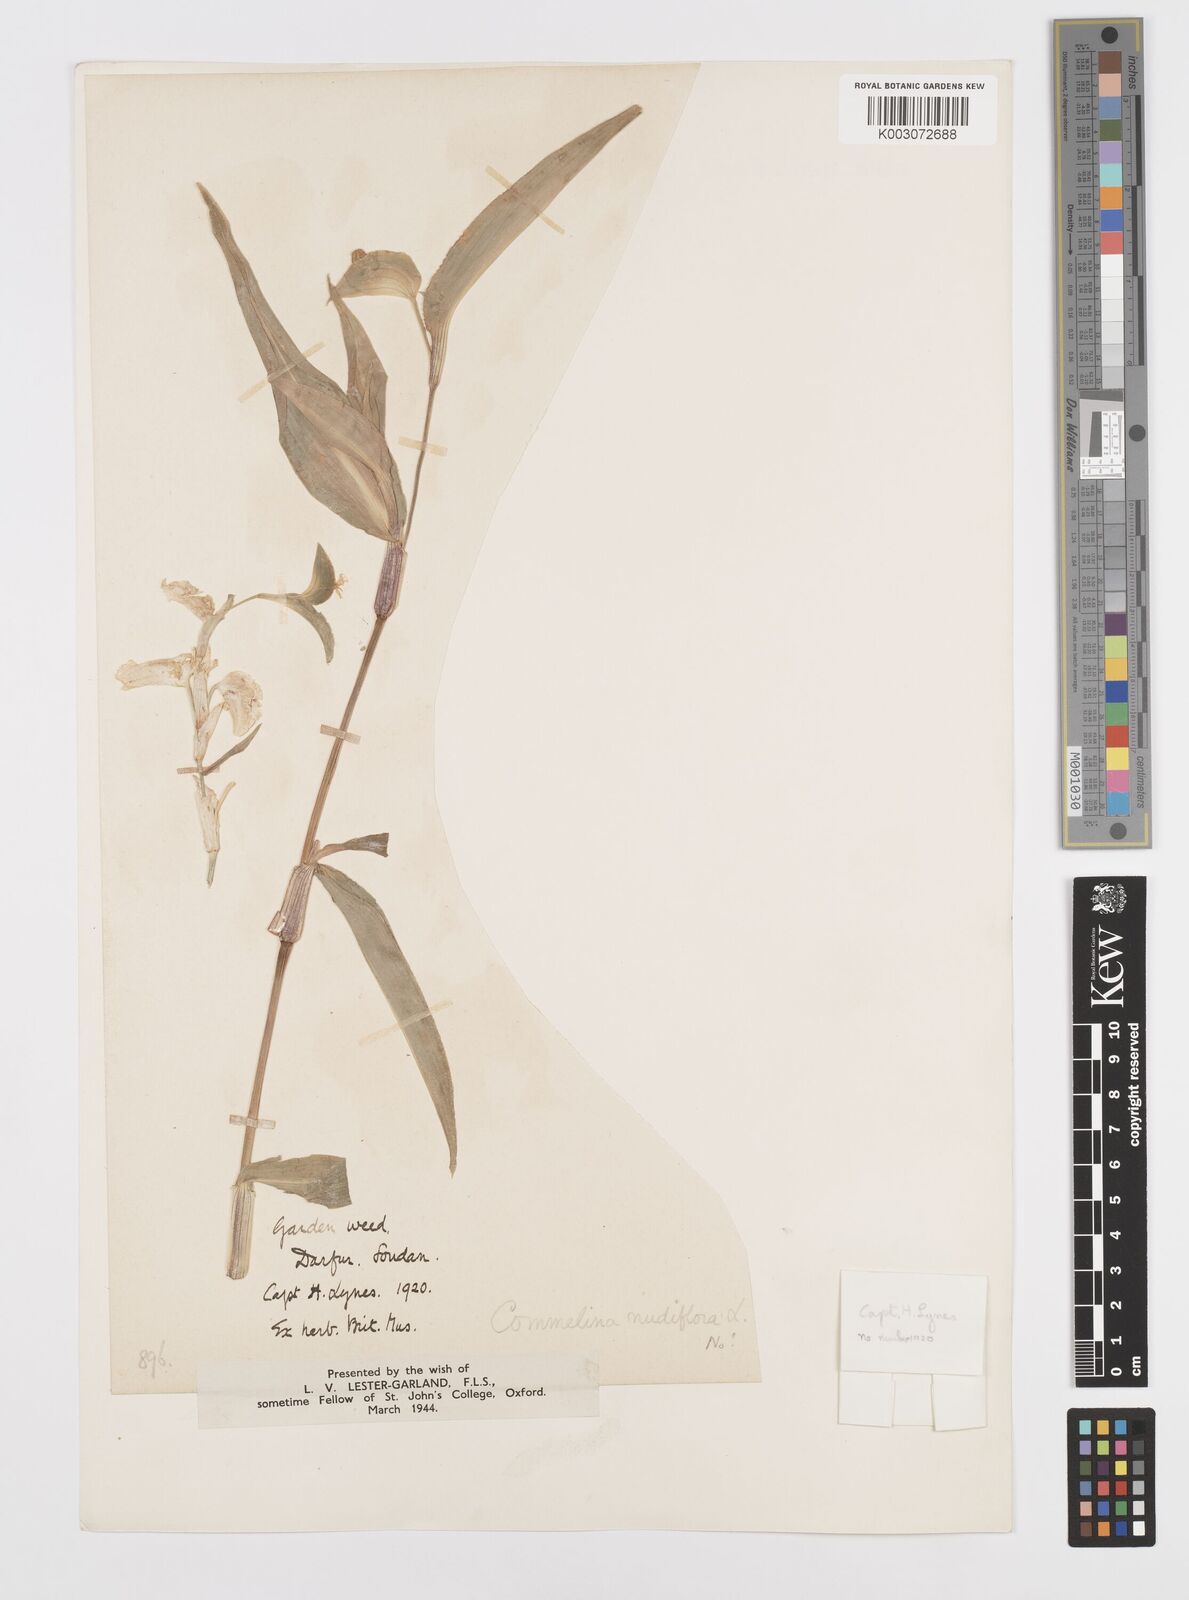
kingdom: Plantae
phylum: Tracheophyta
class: Liliopsida
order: Commelinales
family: Commelinaceae
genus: Commelina
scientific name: Commelina imberbis
